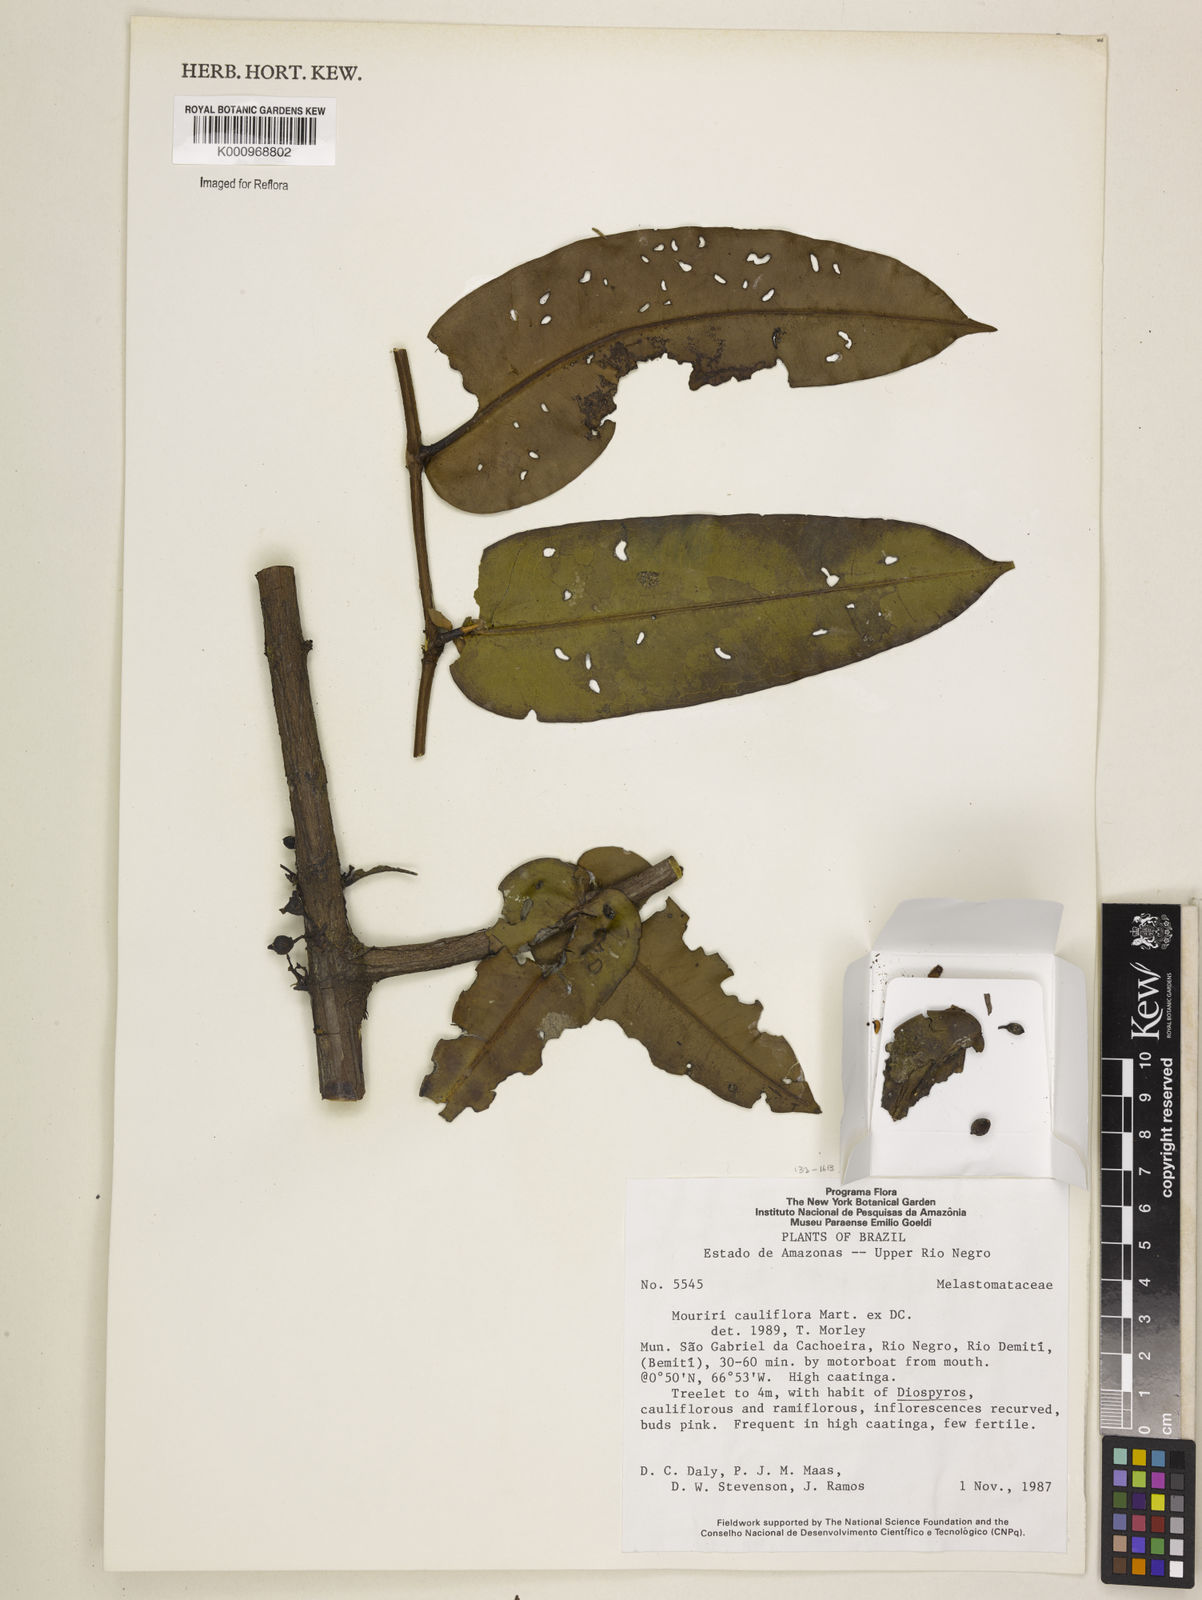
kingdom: Plantae
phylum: Tracheophyta
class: Magnoliopsida
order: Myrtales
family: Melastomataceae
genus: Mouriri
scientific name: Mouriri cauliflora
